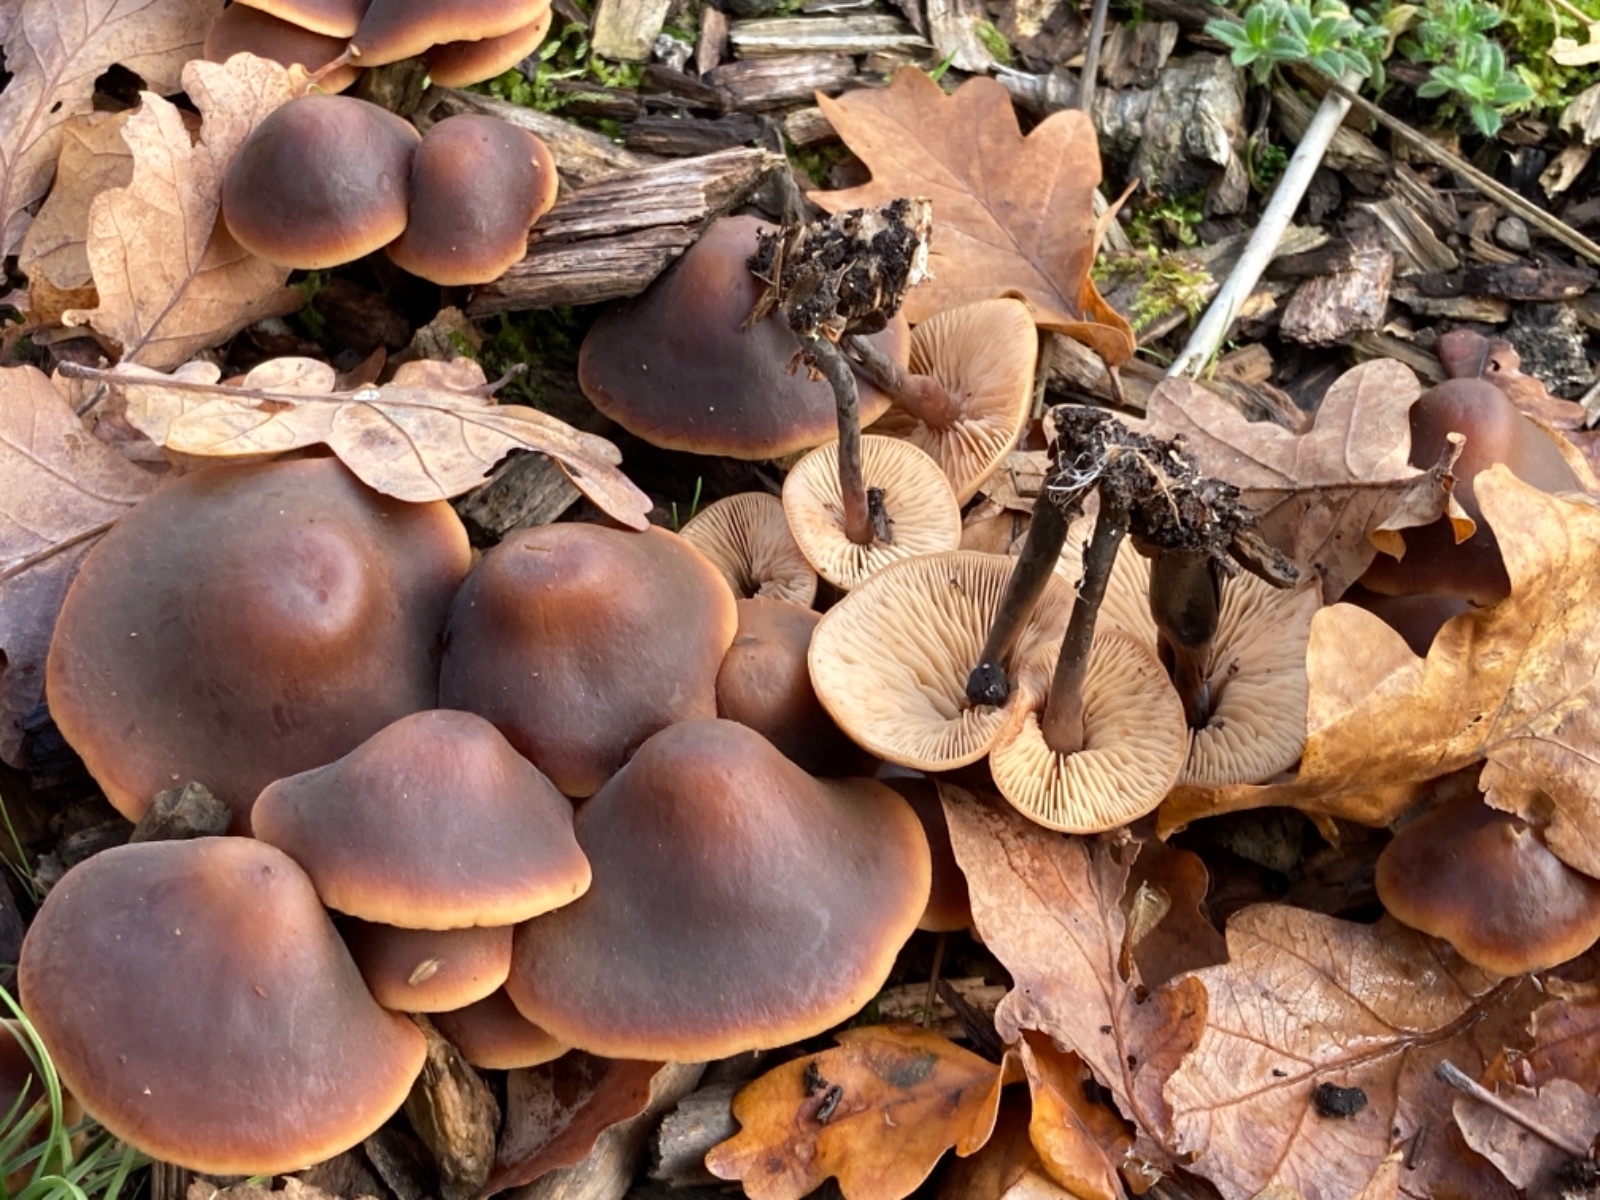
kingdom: Fungi
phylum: Basidiomycota
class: Agaricomycetes
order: Agaricales
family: Macrocystidiaceae
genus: Macrocystidia
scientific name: Macrocystidia cucumis
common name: agurkehat
